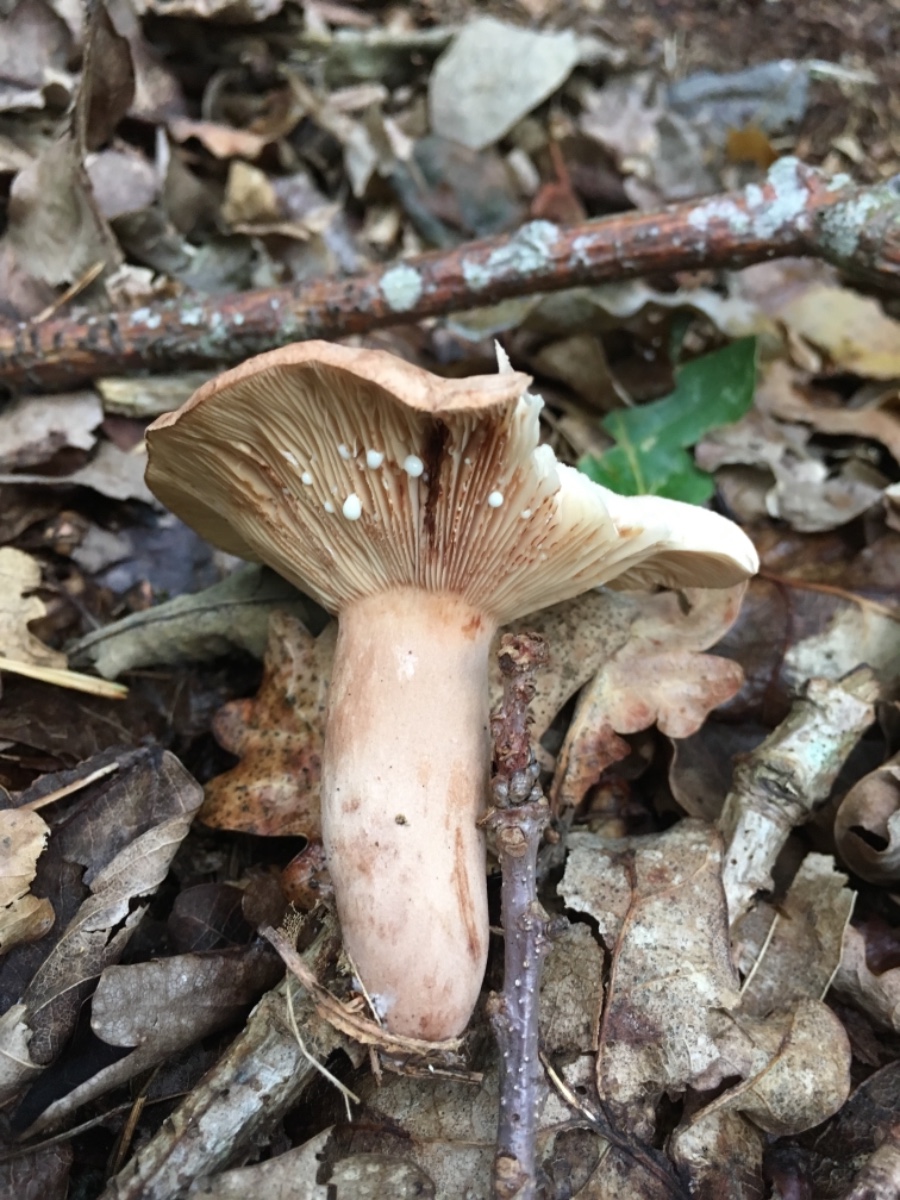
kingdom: Fungi
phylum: Basidiomycota
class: Agaricomycetes
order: Russulales
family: Russulaceae
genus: Lactarius
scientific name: Lactarius quietus
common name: ege-mælkehat
